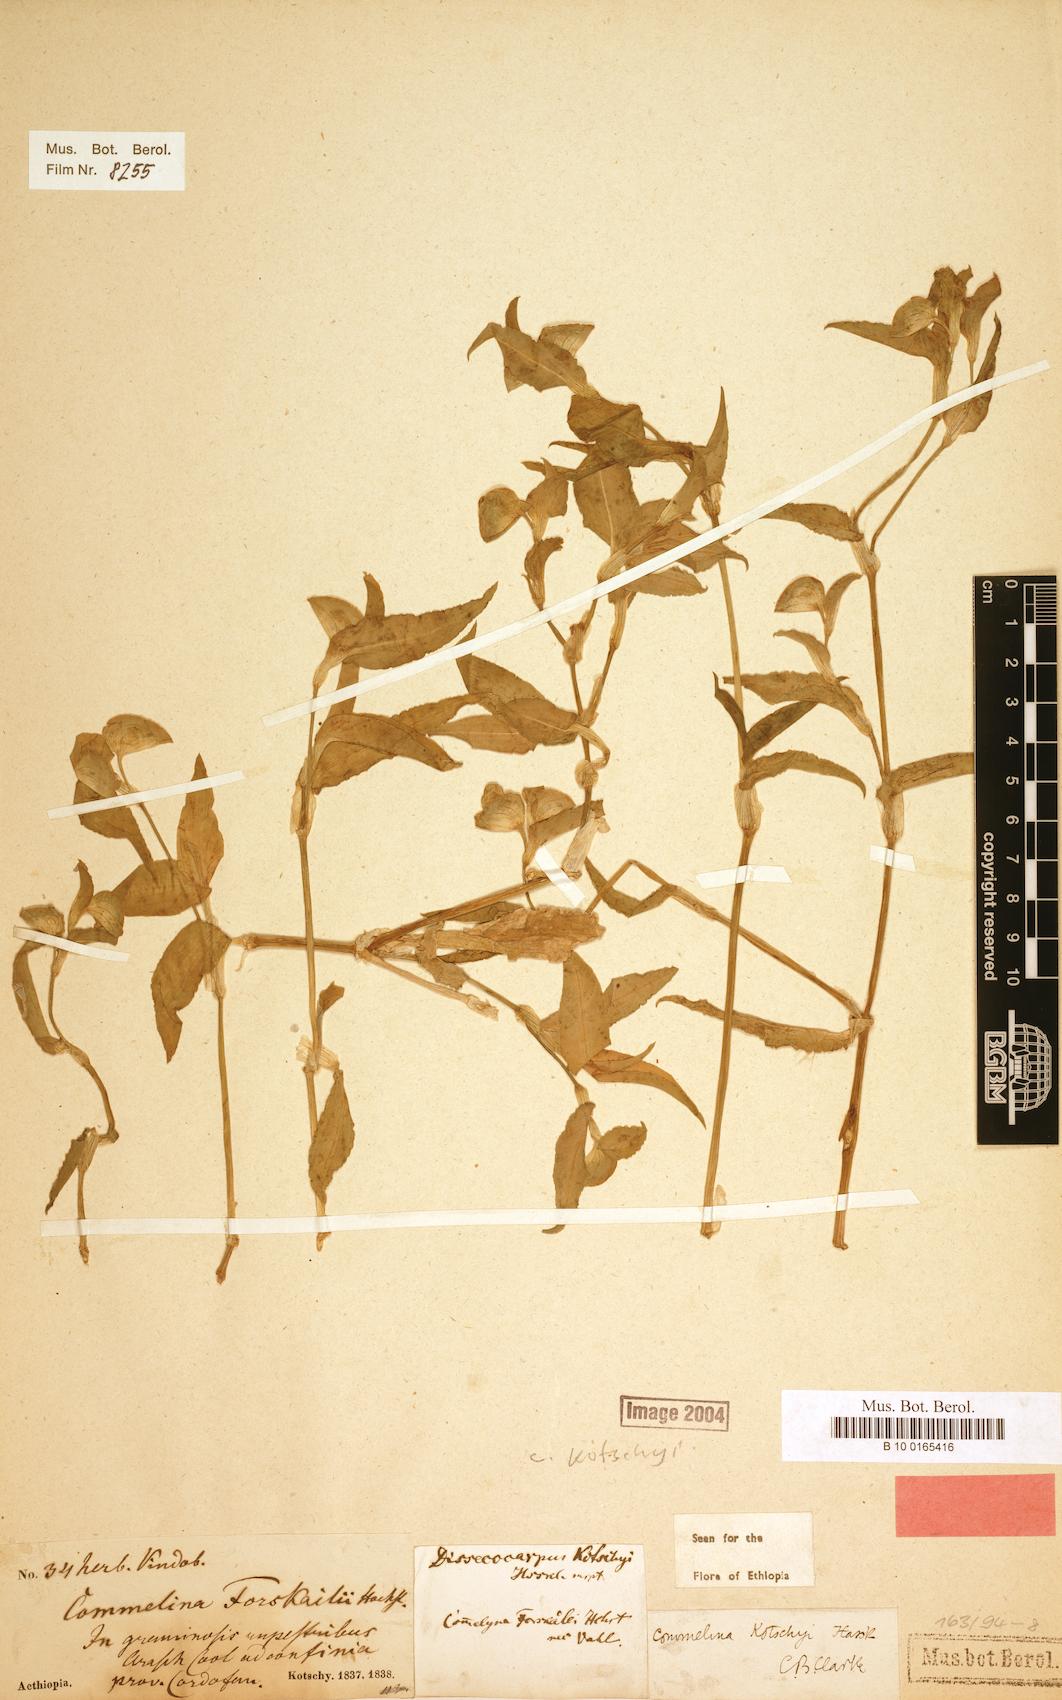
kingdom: Plantae
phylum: Tracheophyta
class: Liliopsida
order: Commelinales
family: Commelinaceae
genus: Commelina
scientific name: Commelina kotschyi
